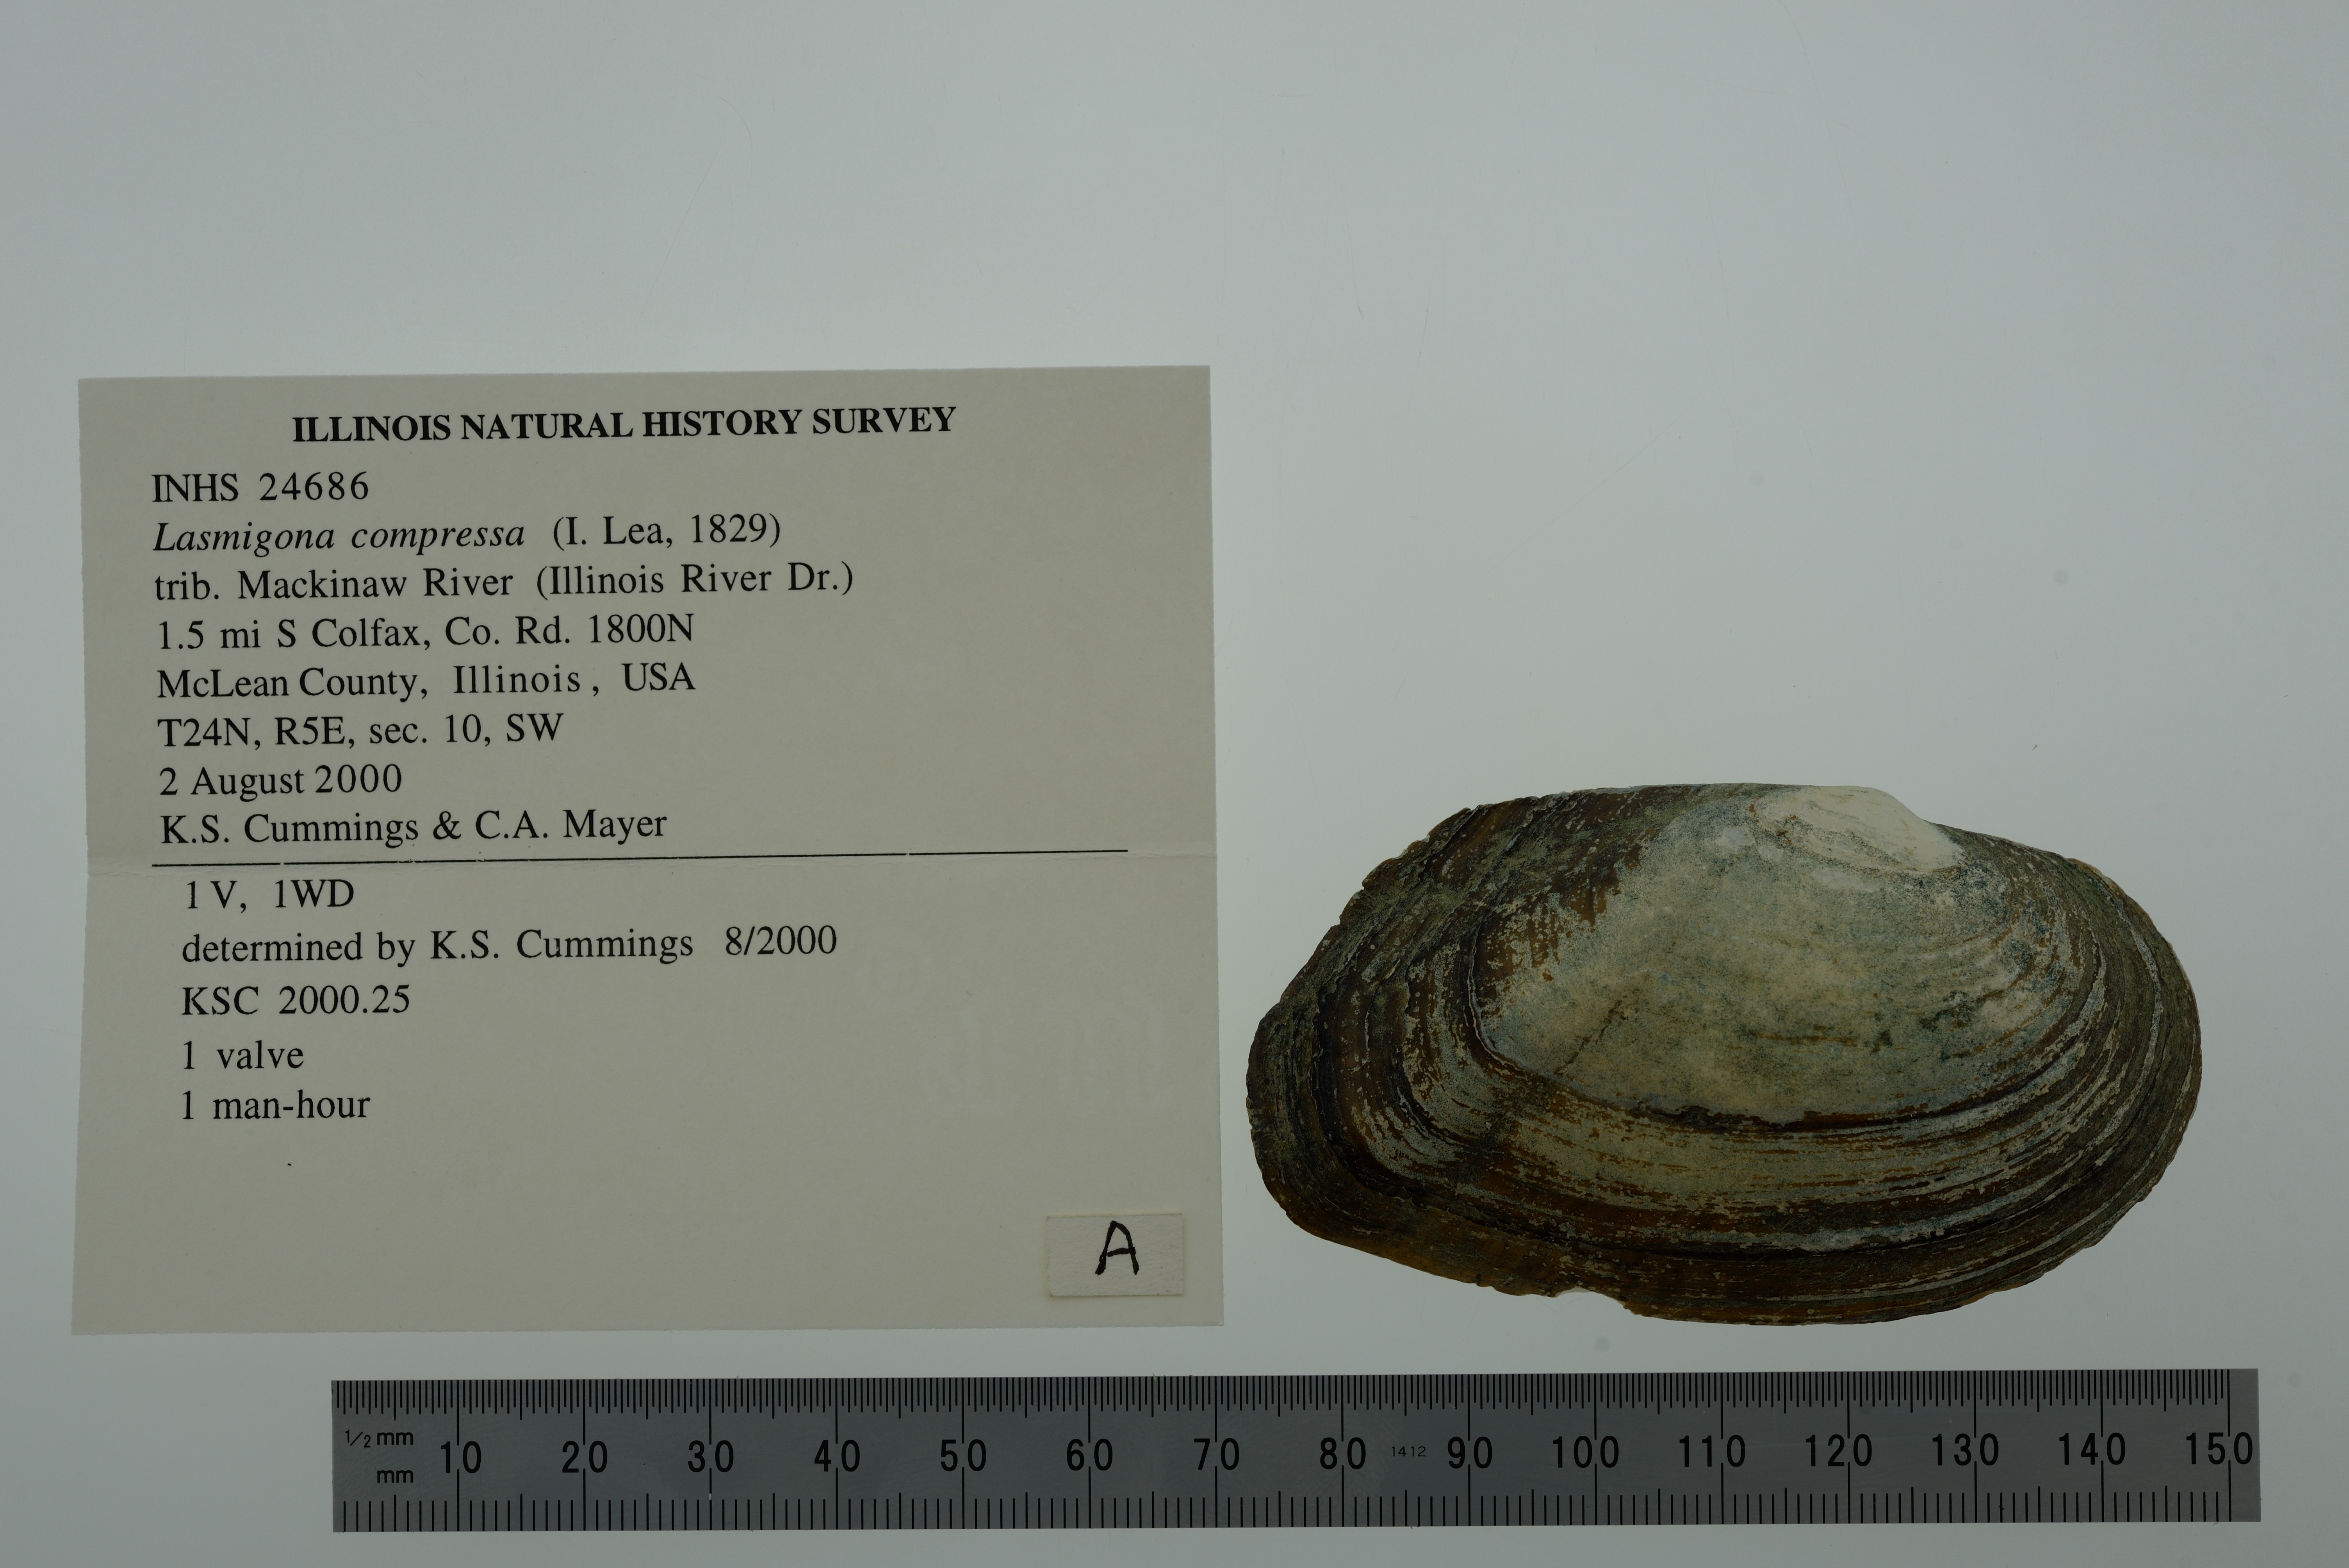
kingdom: Animalia
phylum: Mollusca
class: Bivalvia
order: Unionida
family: Unionidae
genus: Lasmigona
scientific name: Lasmigona compressa
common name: Creek heelsplitter
